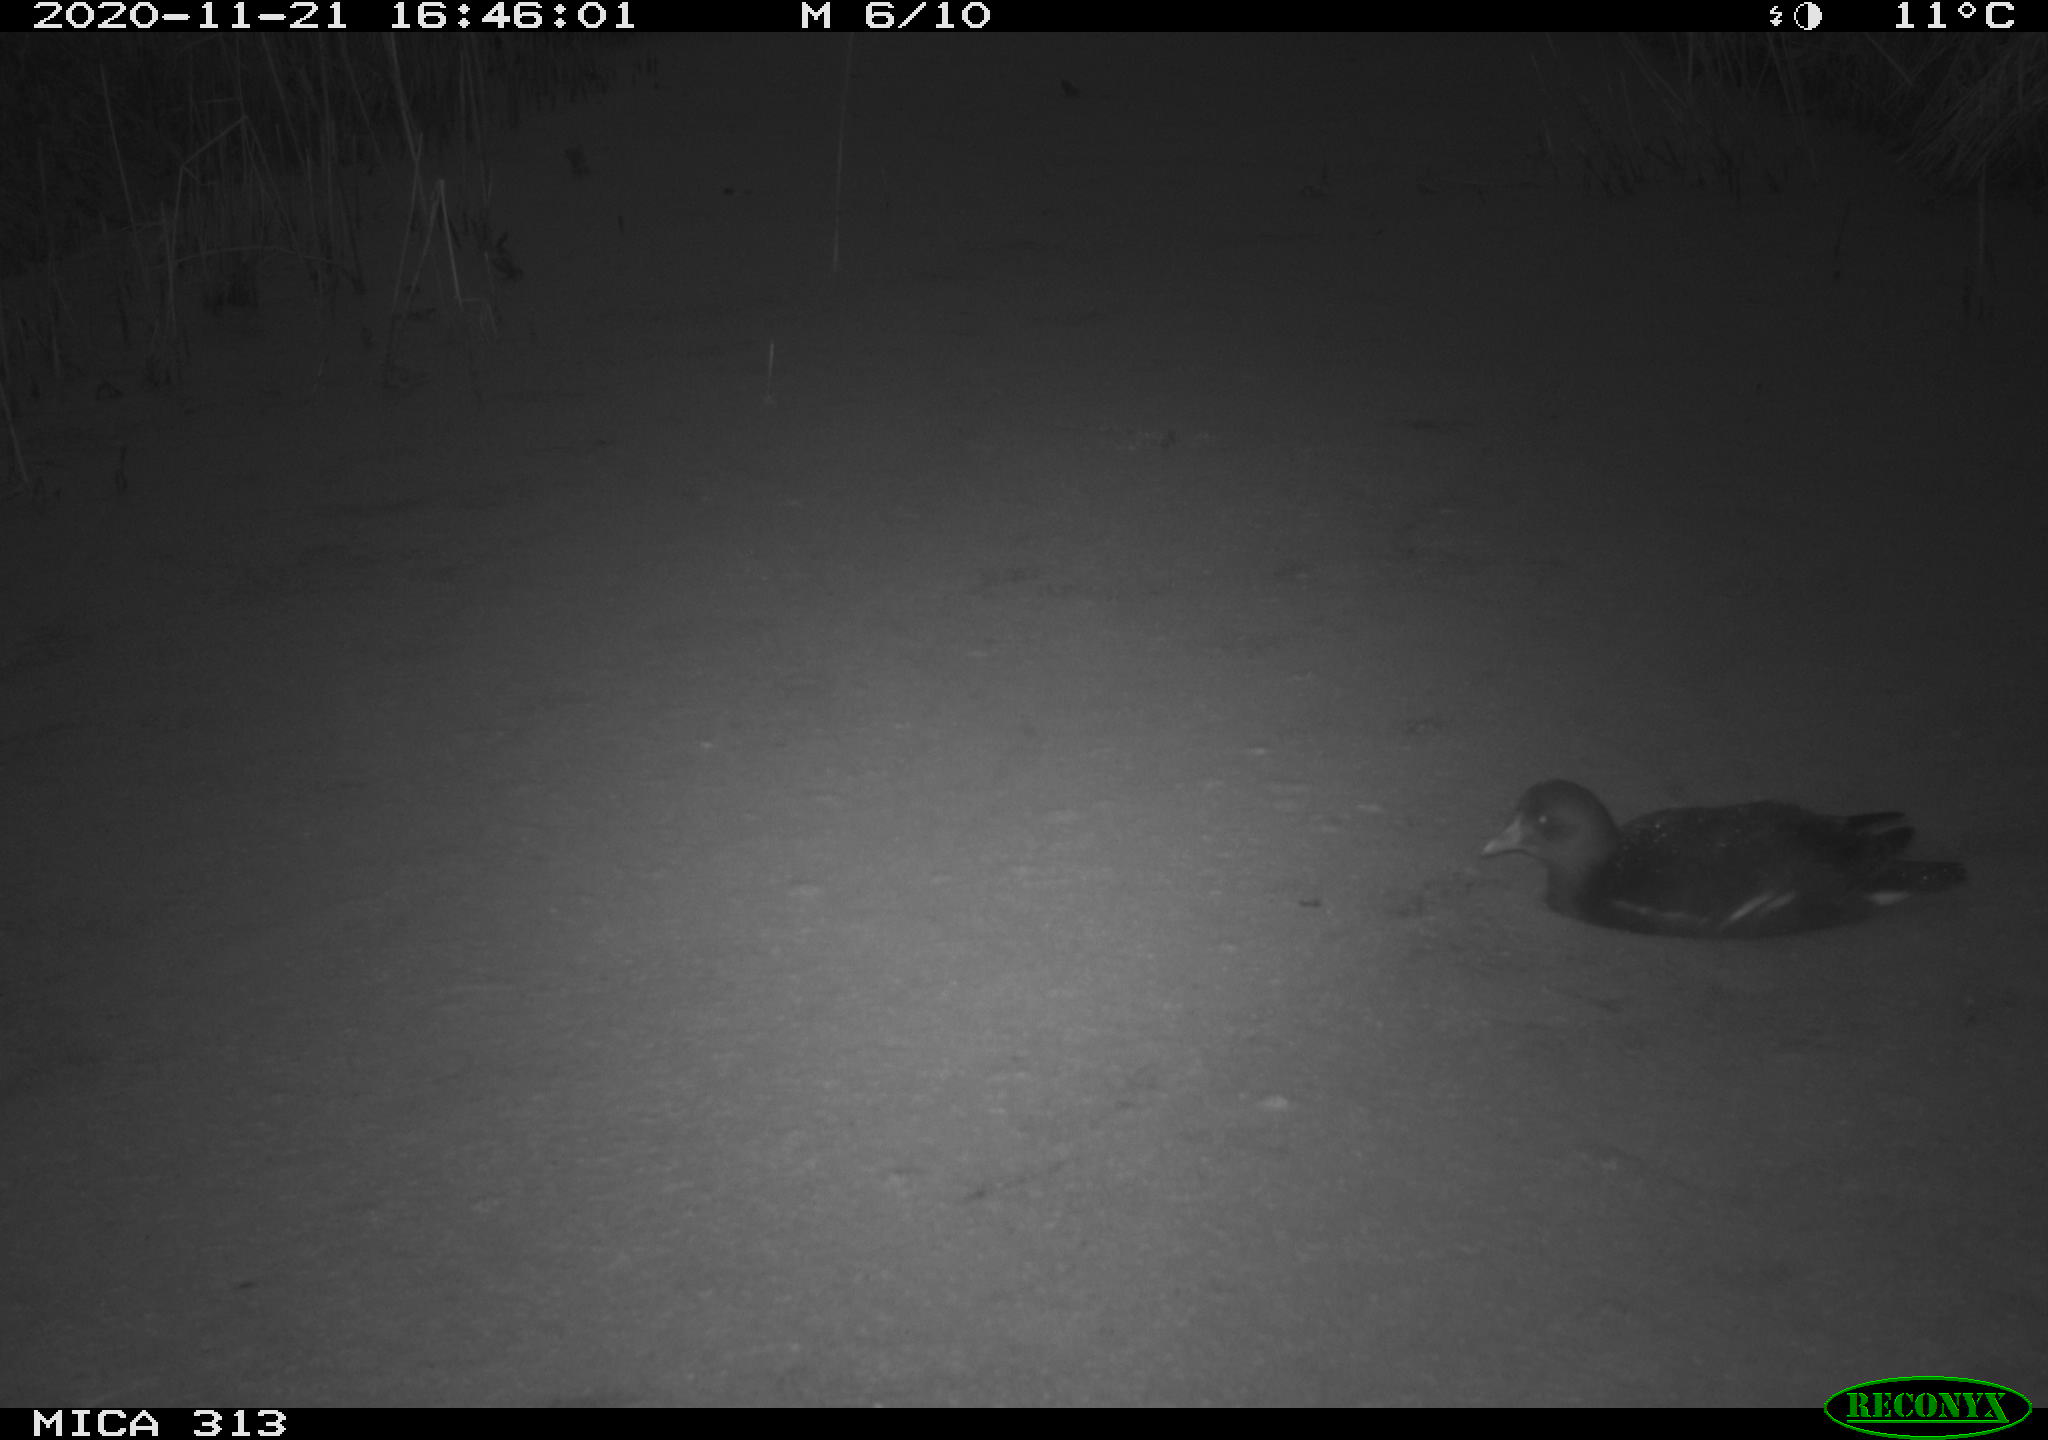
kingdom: Animalia
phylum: Chordata
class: Aves
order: Gruiformes
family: Rallidae
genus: Gallinula
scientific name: Gallinula chloropus
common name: Common moorhen
